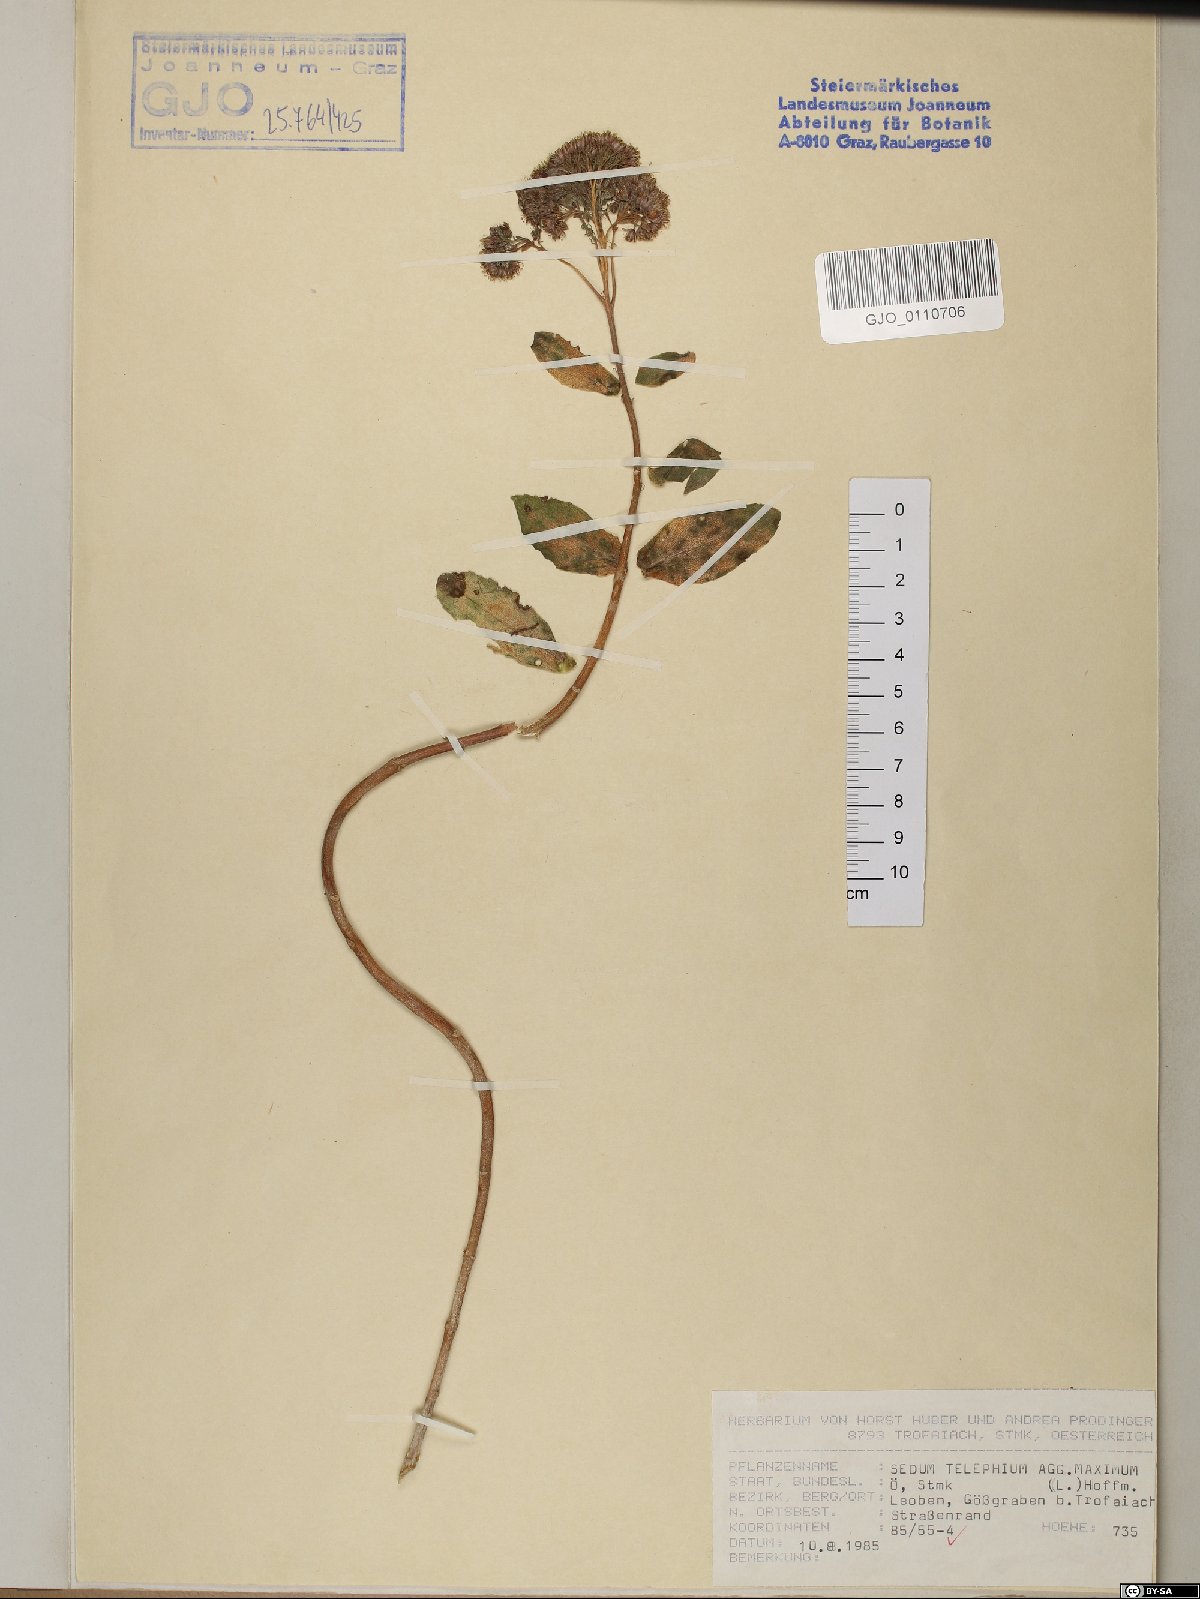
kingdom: Plantae
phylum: Tracheophyta
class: Magnoliopsida
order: Saxifragales
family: Crassulaceae
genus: Hylotelephium
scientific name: Hylotelephium maximum
